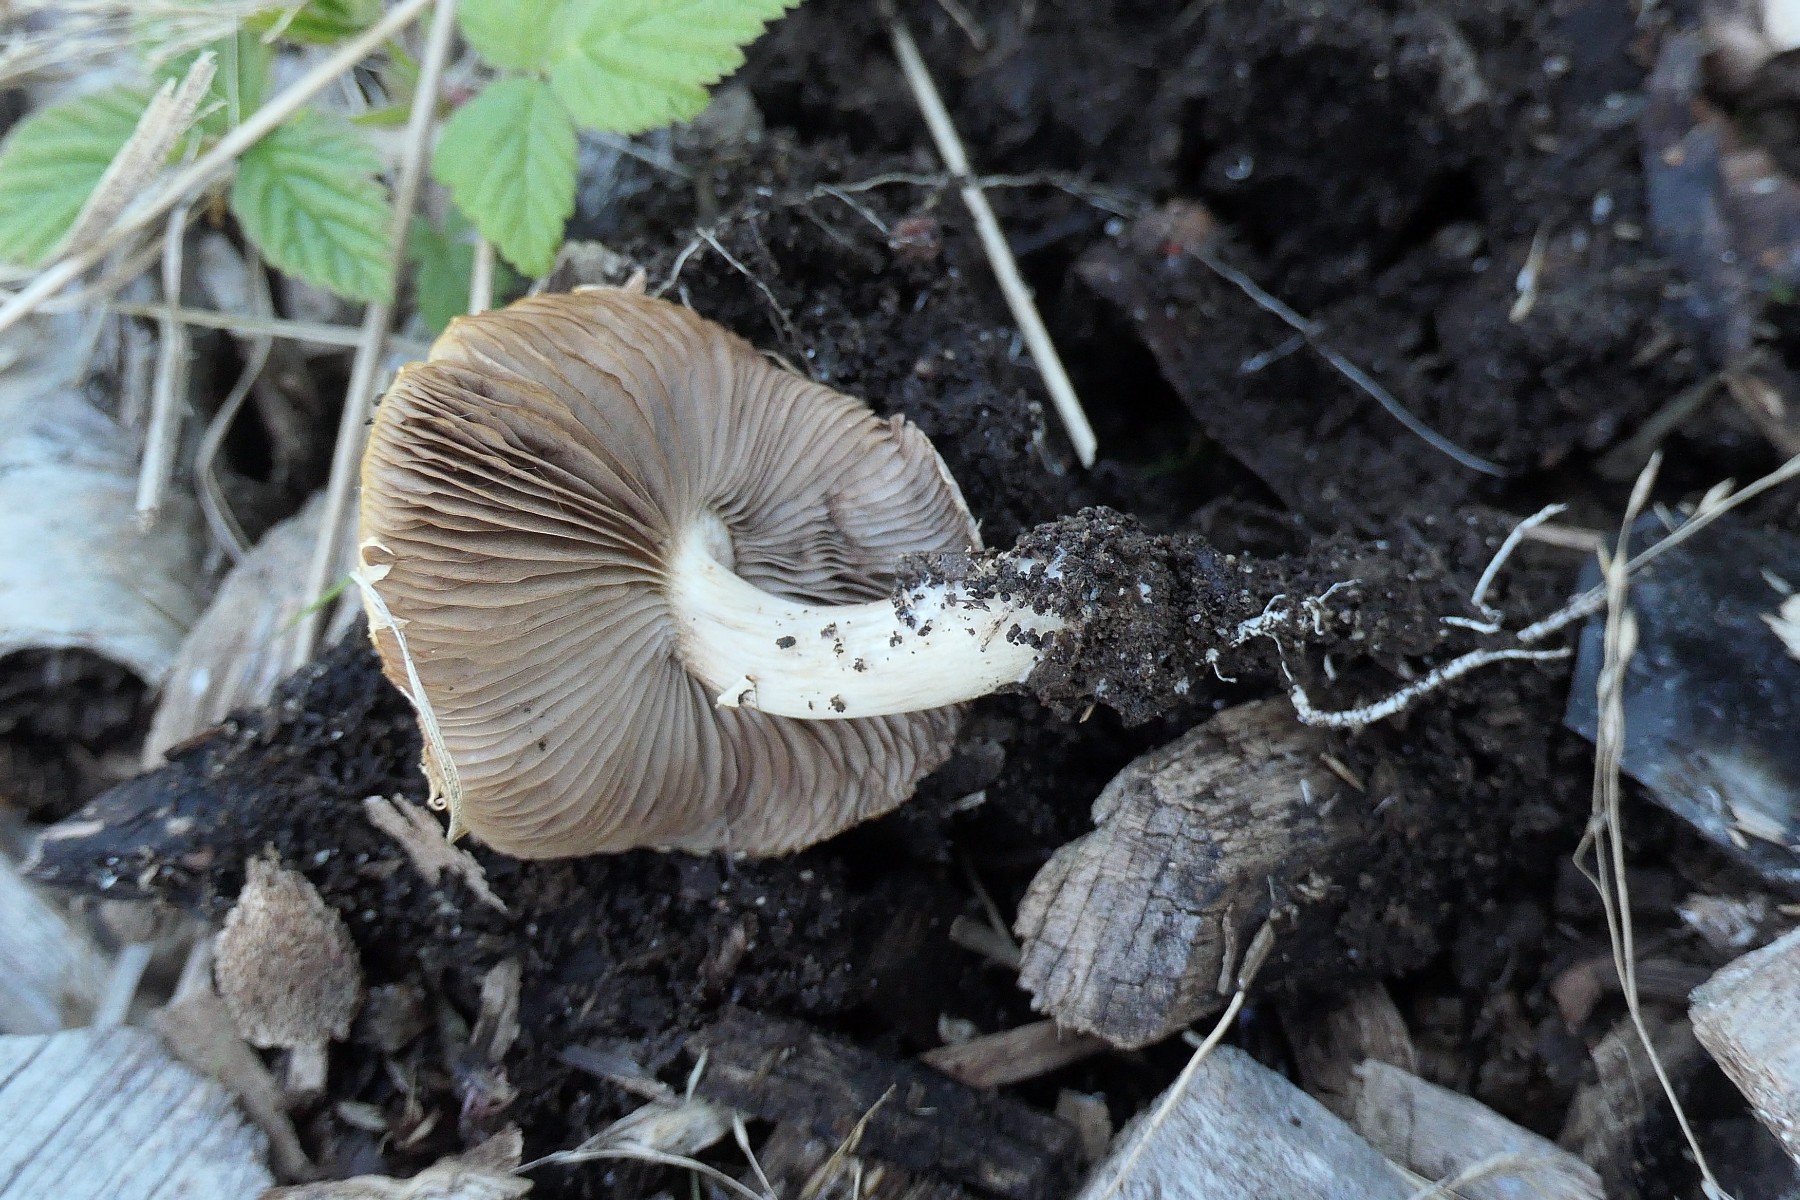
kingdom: Fungi
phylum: Basidiomycota
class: Agaricomycetes
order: Agaricales
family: Strophariaceae
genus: Agrocybe
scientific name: Agrocybe praecox
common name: tidlig agerhat
